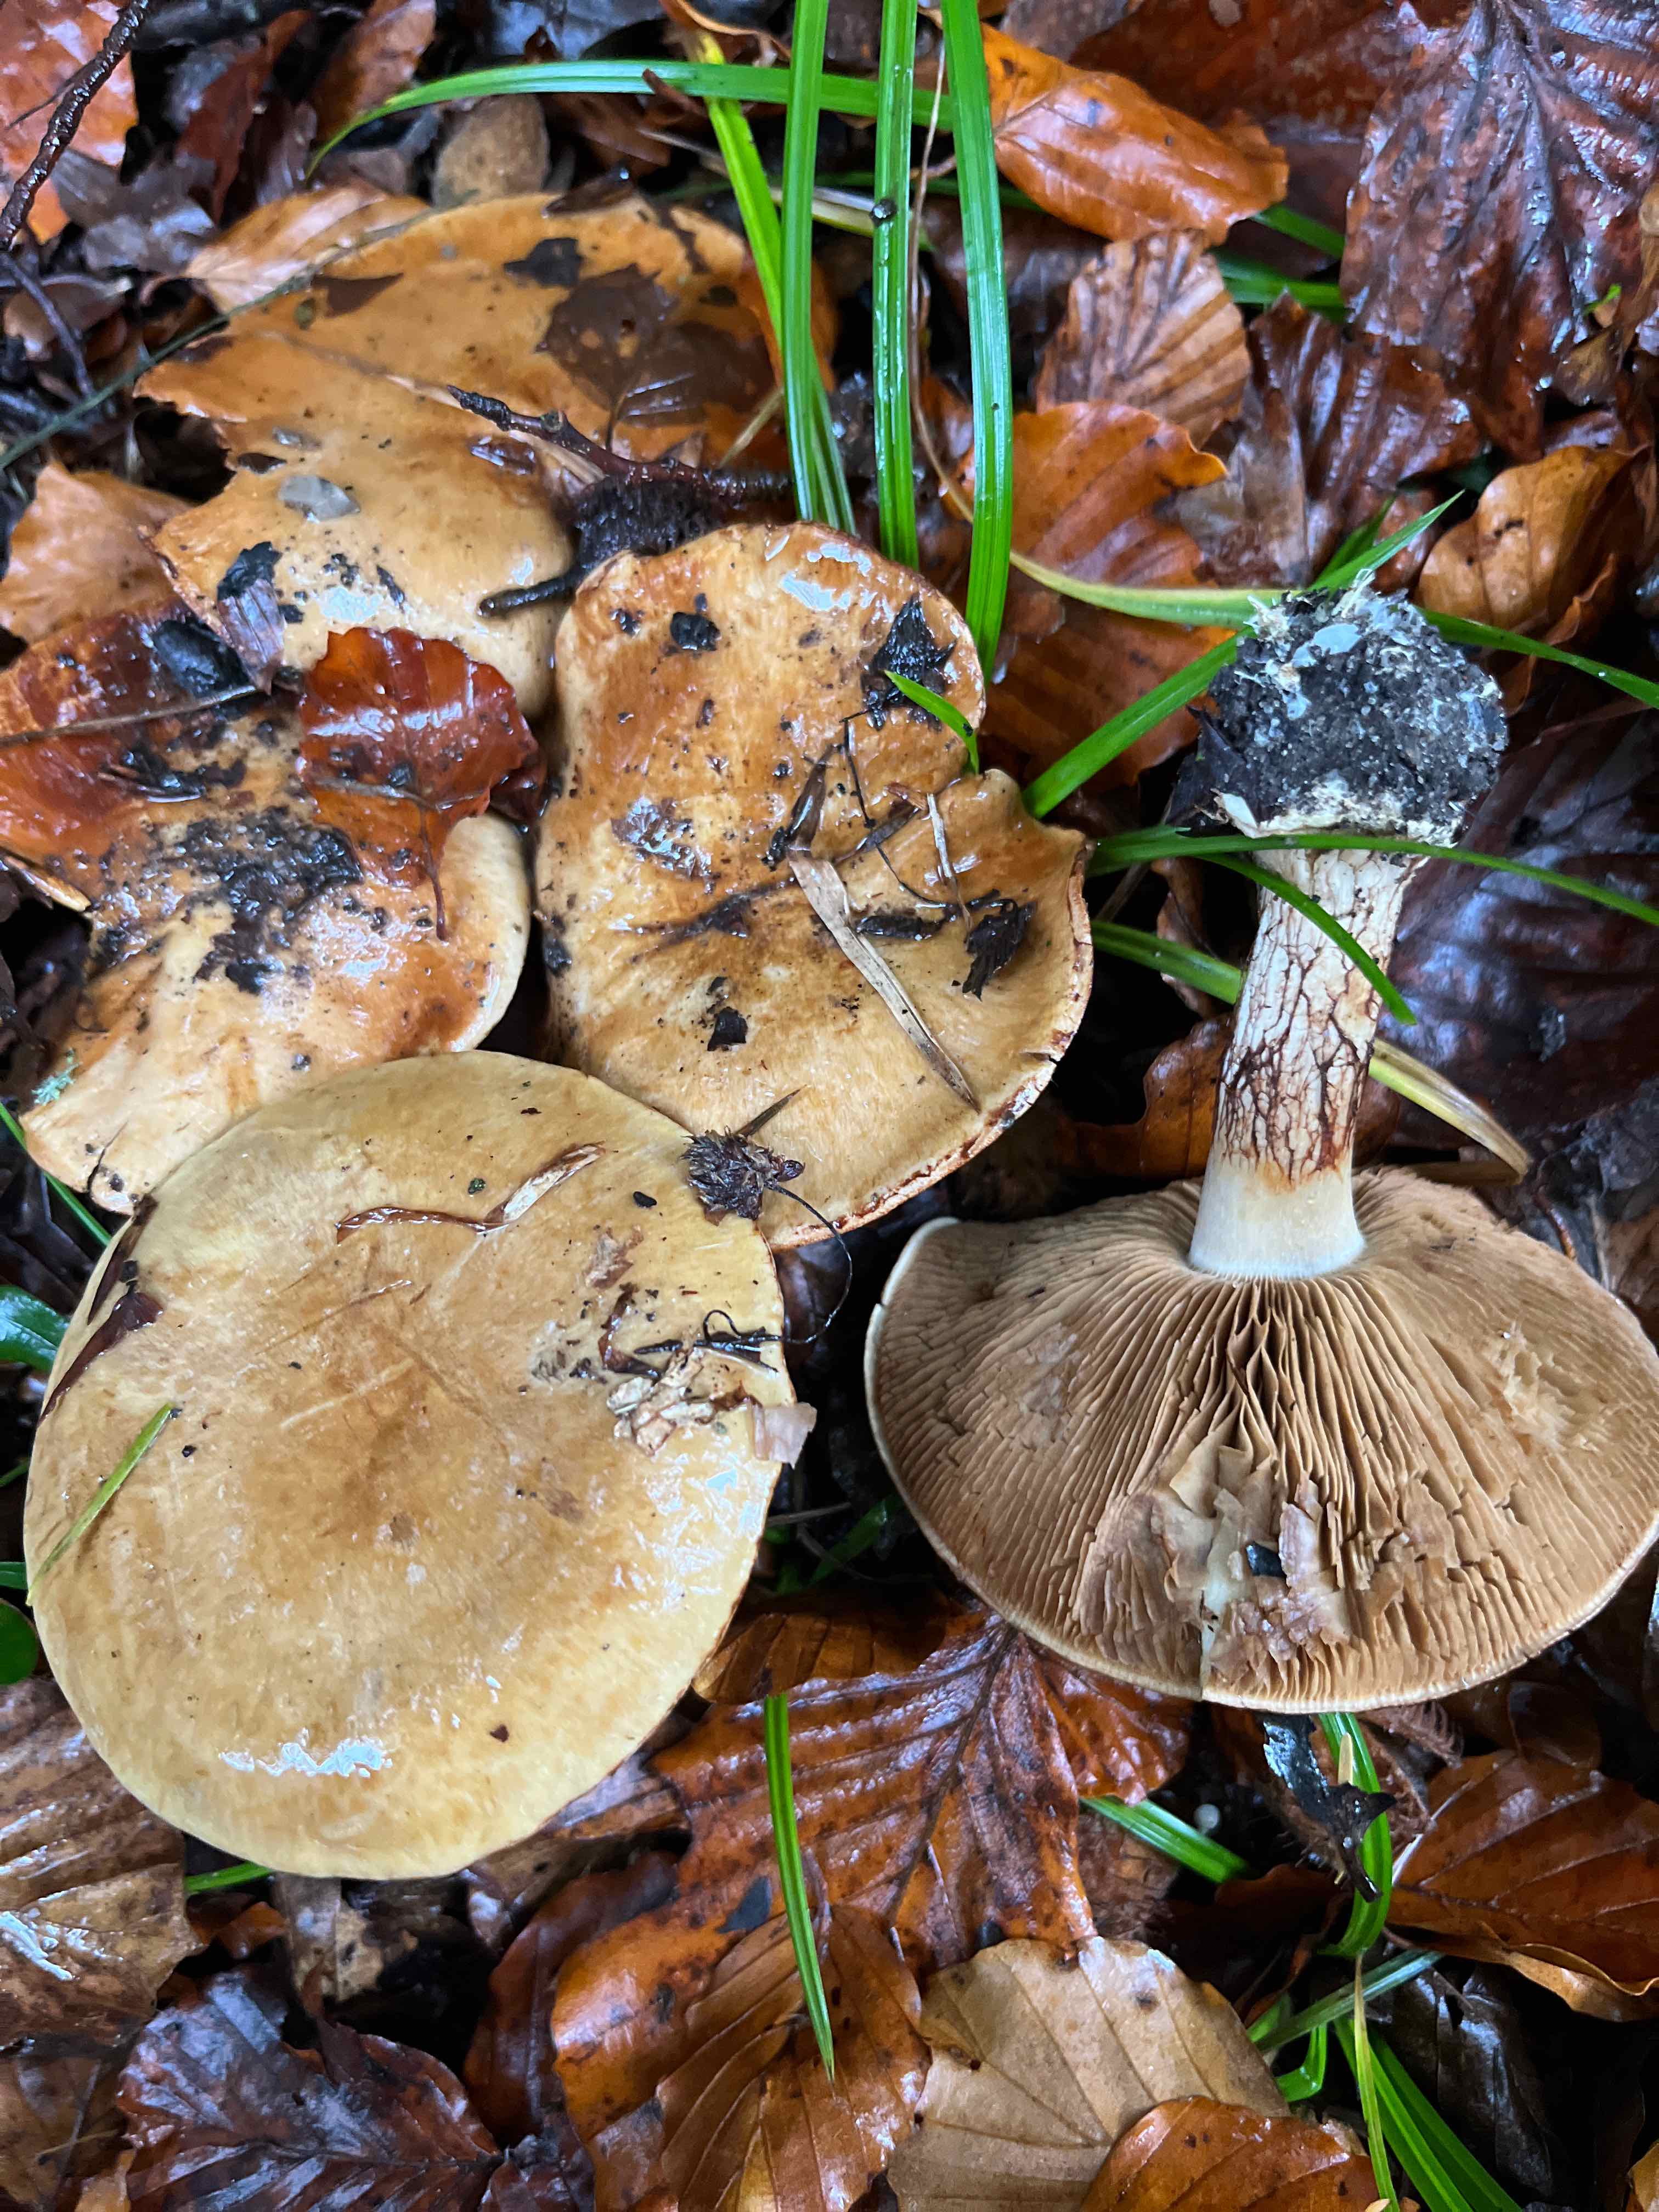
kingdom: Fungi
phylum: Basidiomycota
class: Agaricomycetes
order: Agaricales
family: Cortinariaceae
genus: Phlegmacium
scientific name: Phlegmacium
